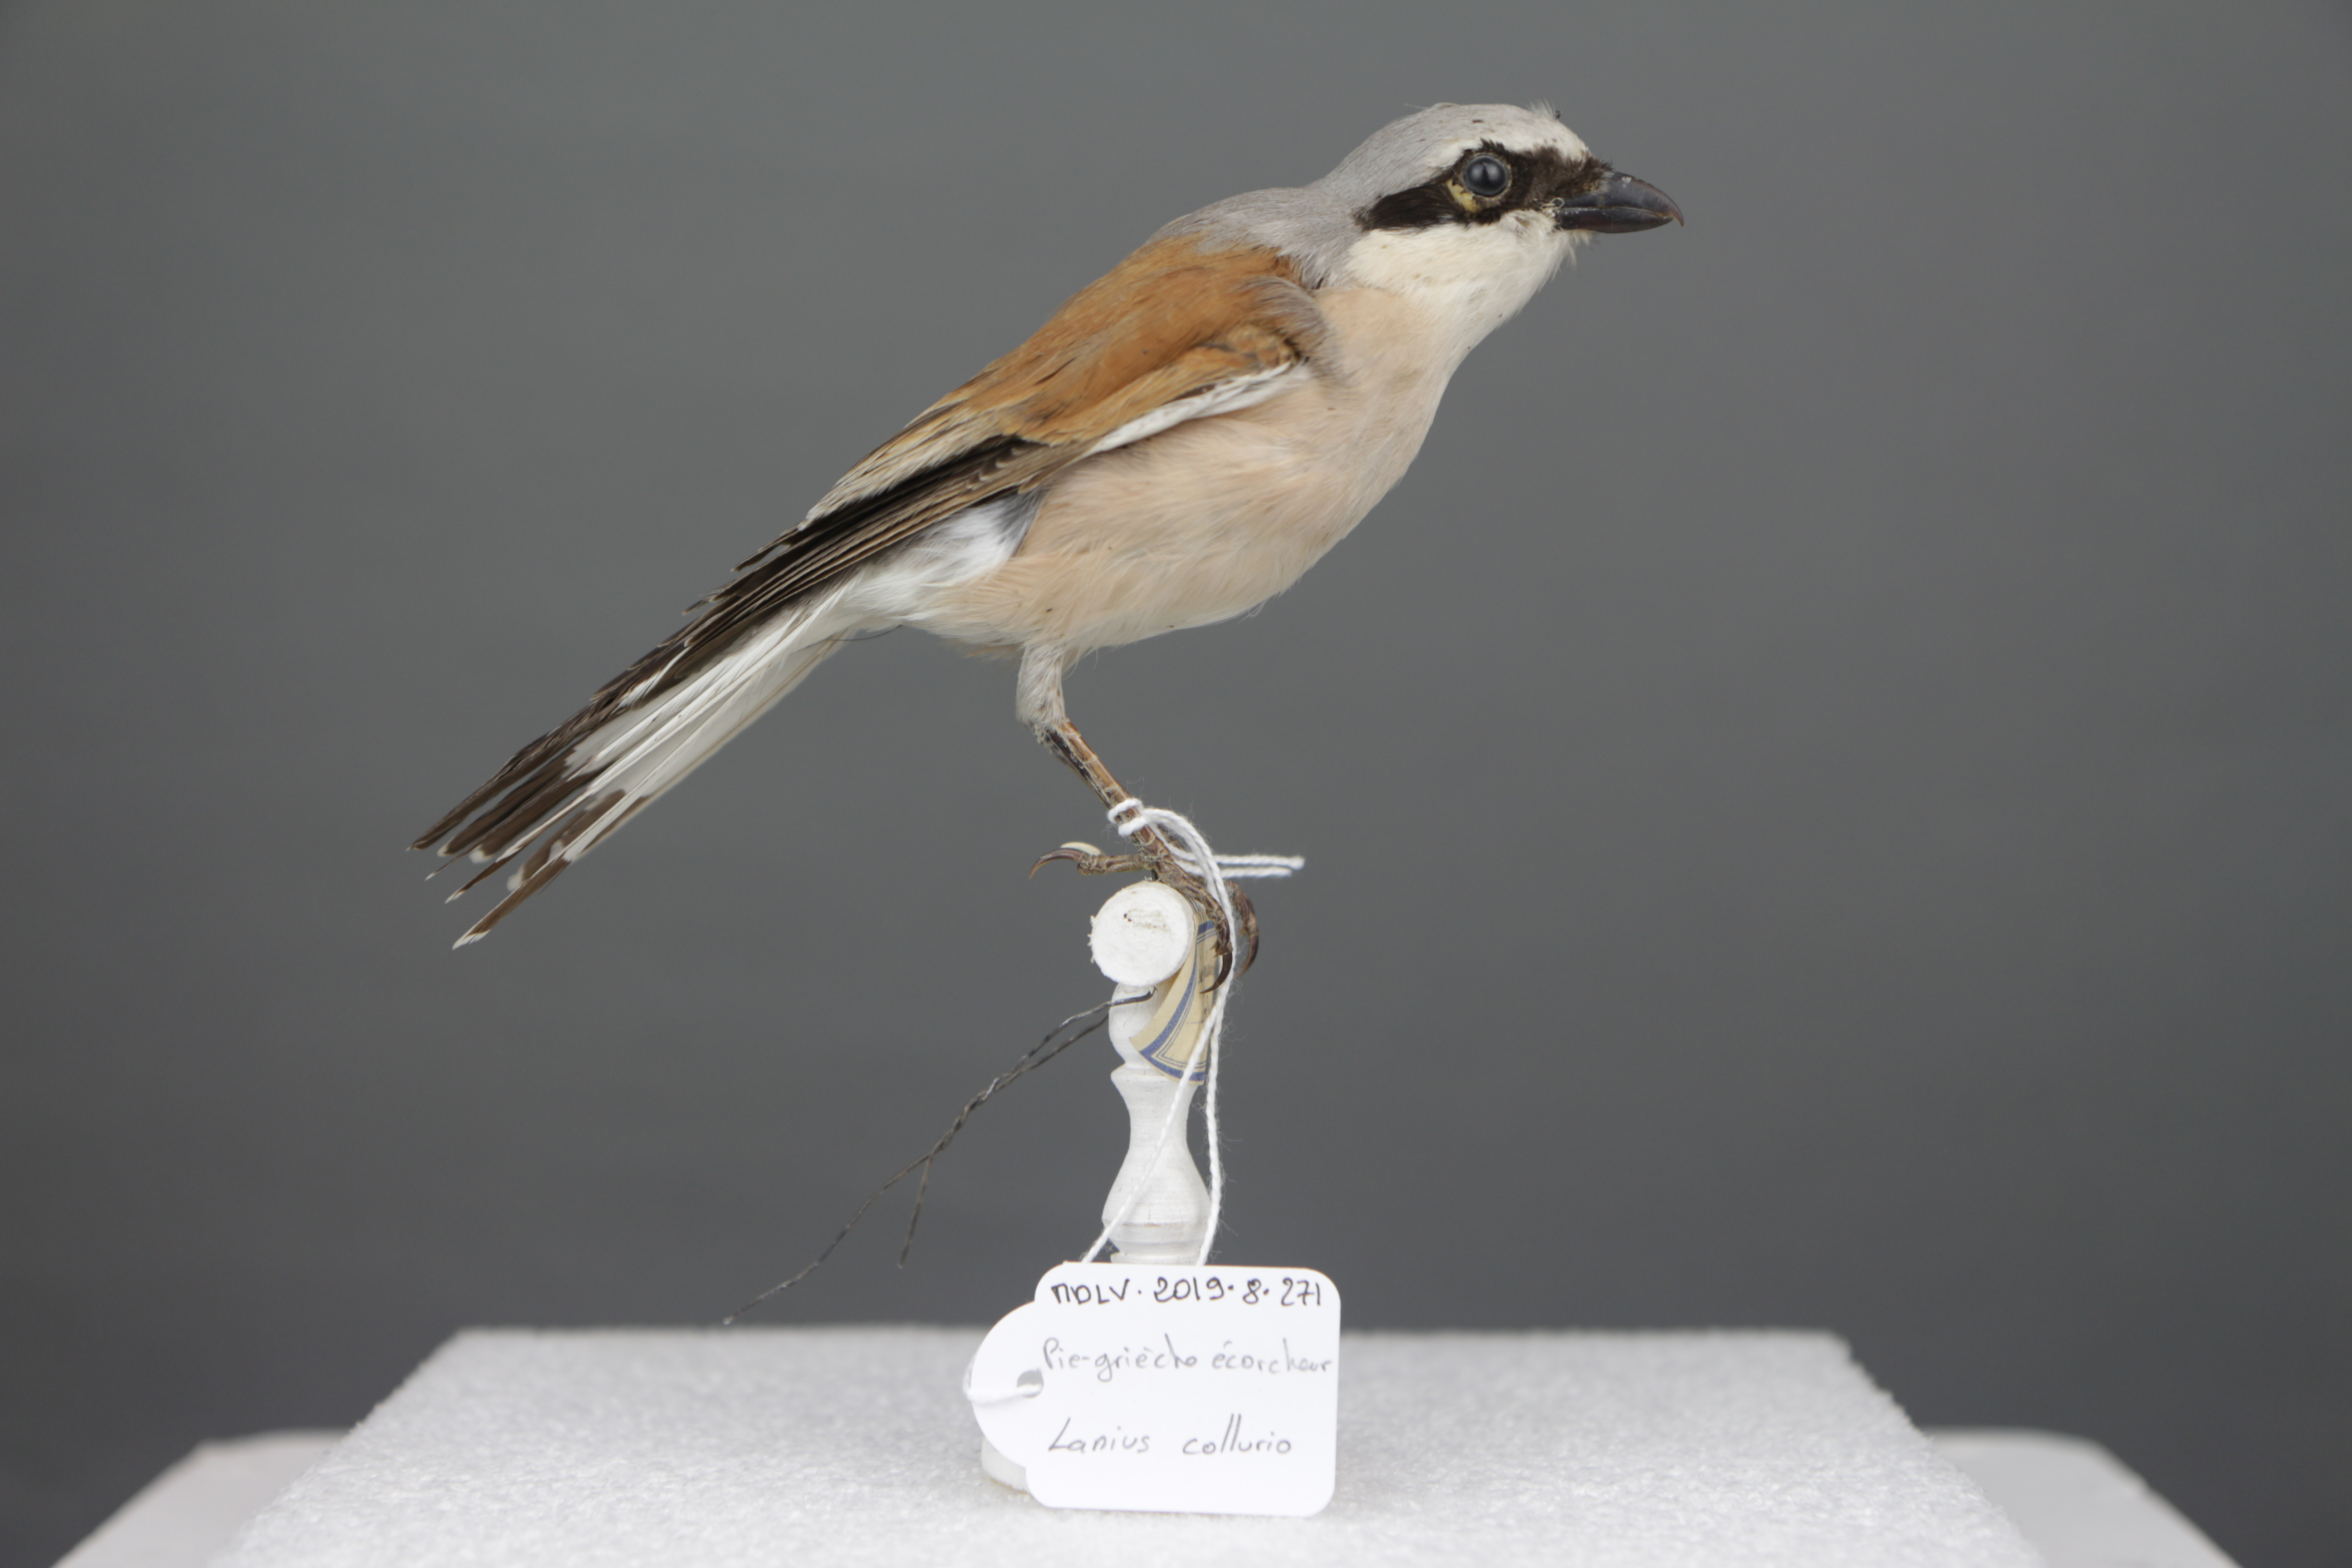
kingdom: Animalia
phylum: Chordata
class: Aves
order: Passeriformes
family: Laniidae
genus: Lanius
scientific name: Lanius collurio
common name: Red-backed shrike
